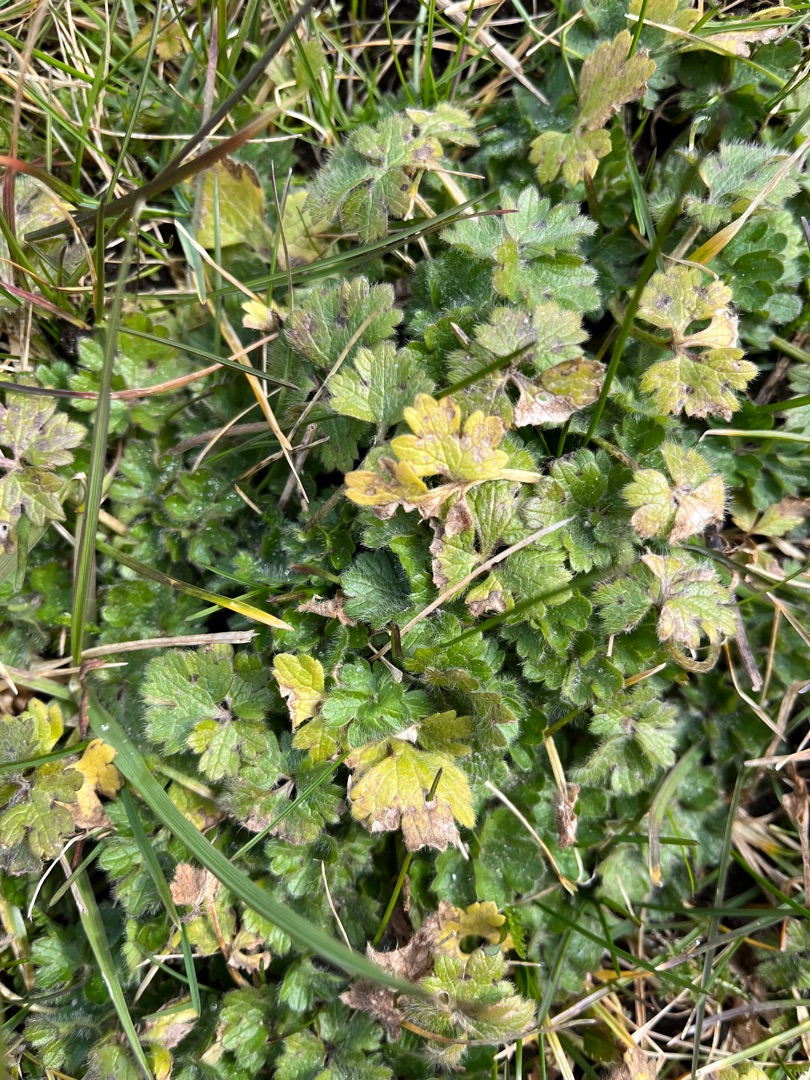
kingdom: Plantae
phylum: Tracheophyta
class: Magnoliopsida
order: Ranunculales
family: Ranunculaceae
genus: Ranunculus
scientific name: Ranunculus bulbosus
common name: Knold-ranunkel
